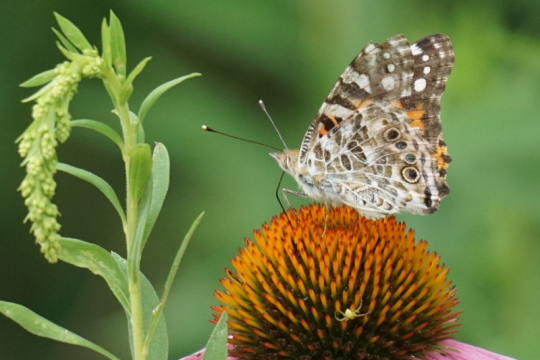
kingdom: Animalia
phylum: Arthropoda
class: Insecta
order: Lepidoptera
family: Nymphalidae
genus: Vanessa
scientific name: Vanessa cardui
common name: Painted Lady
